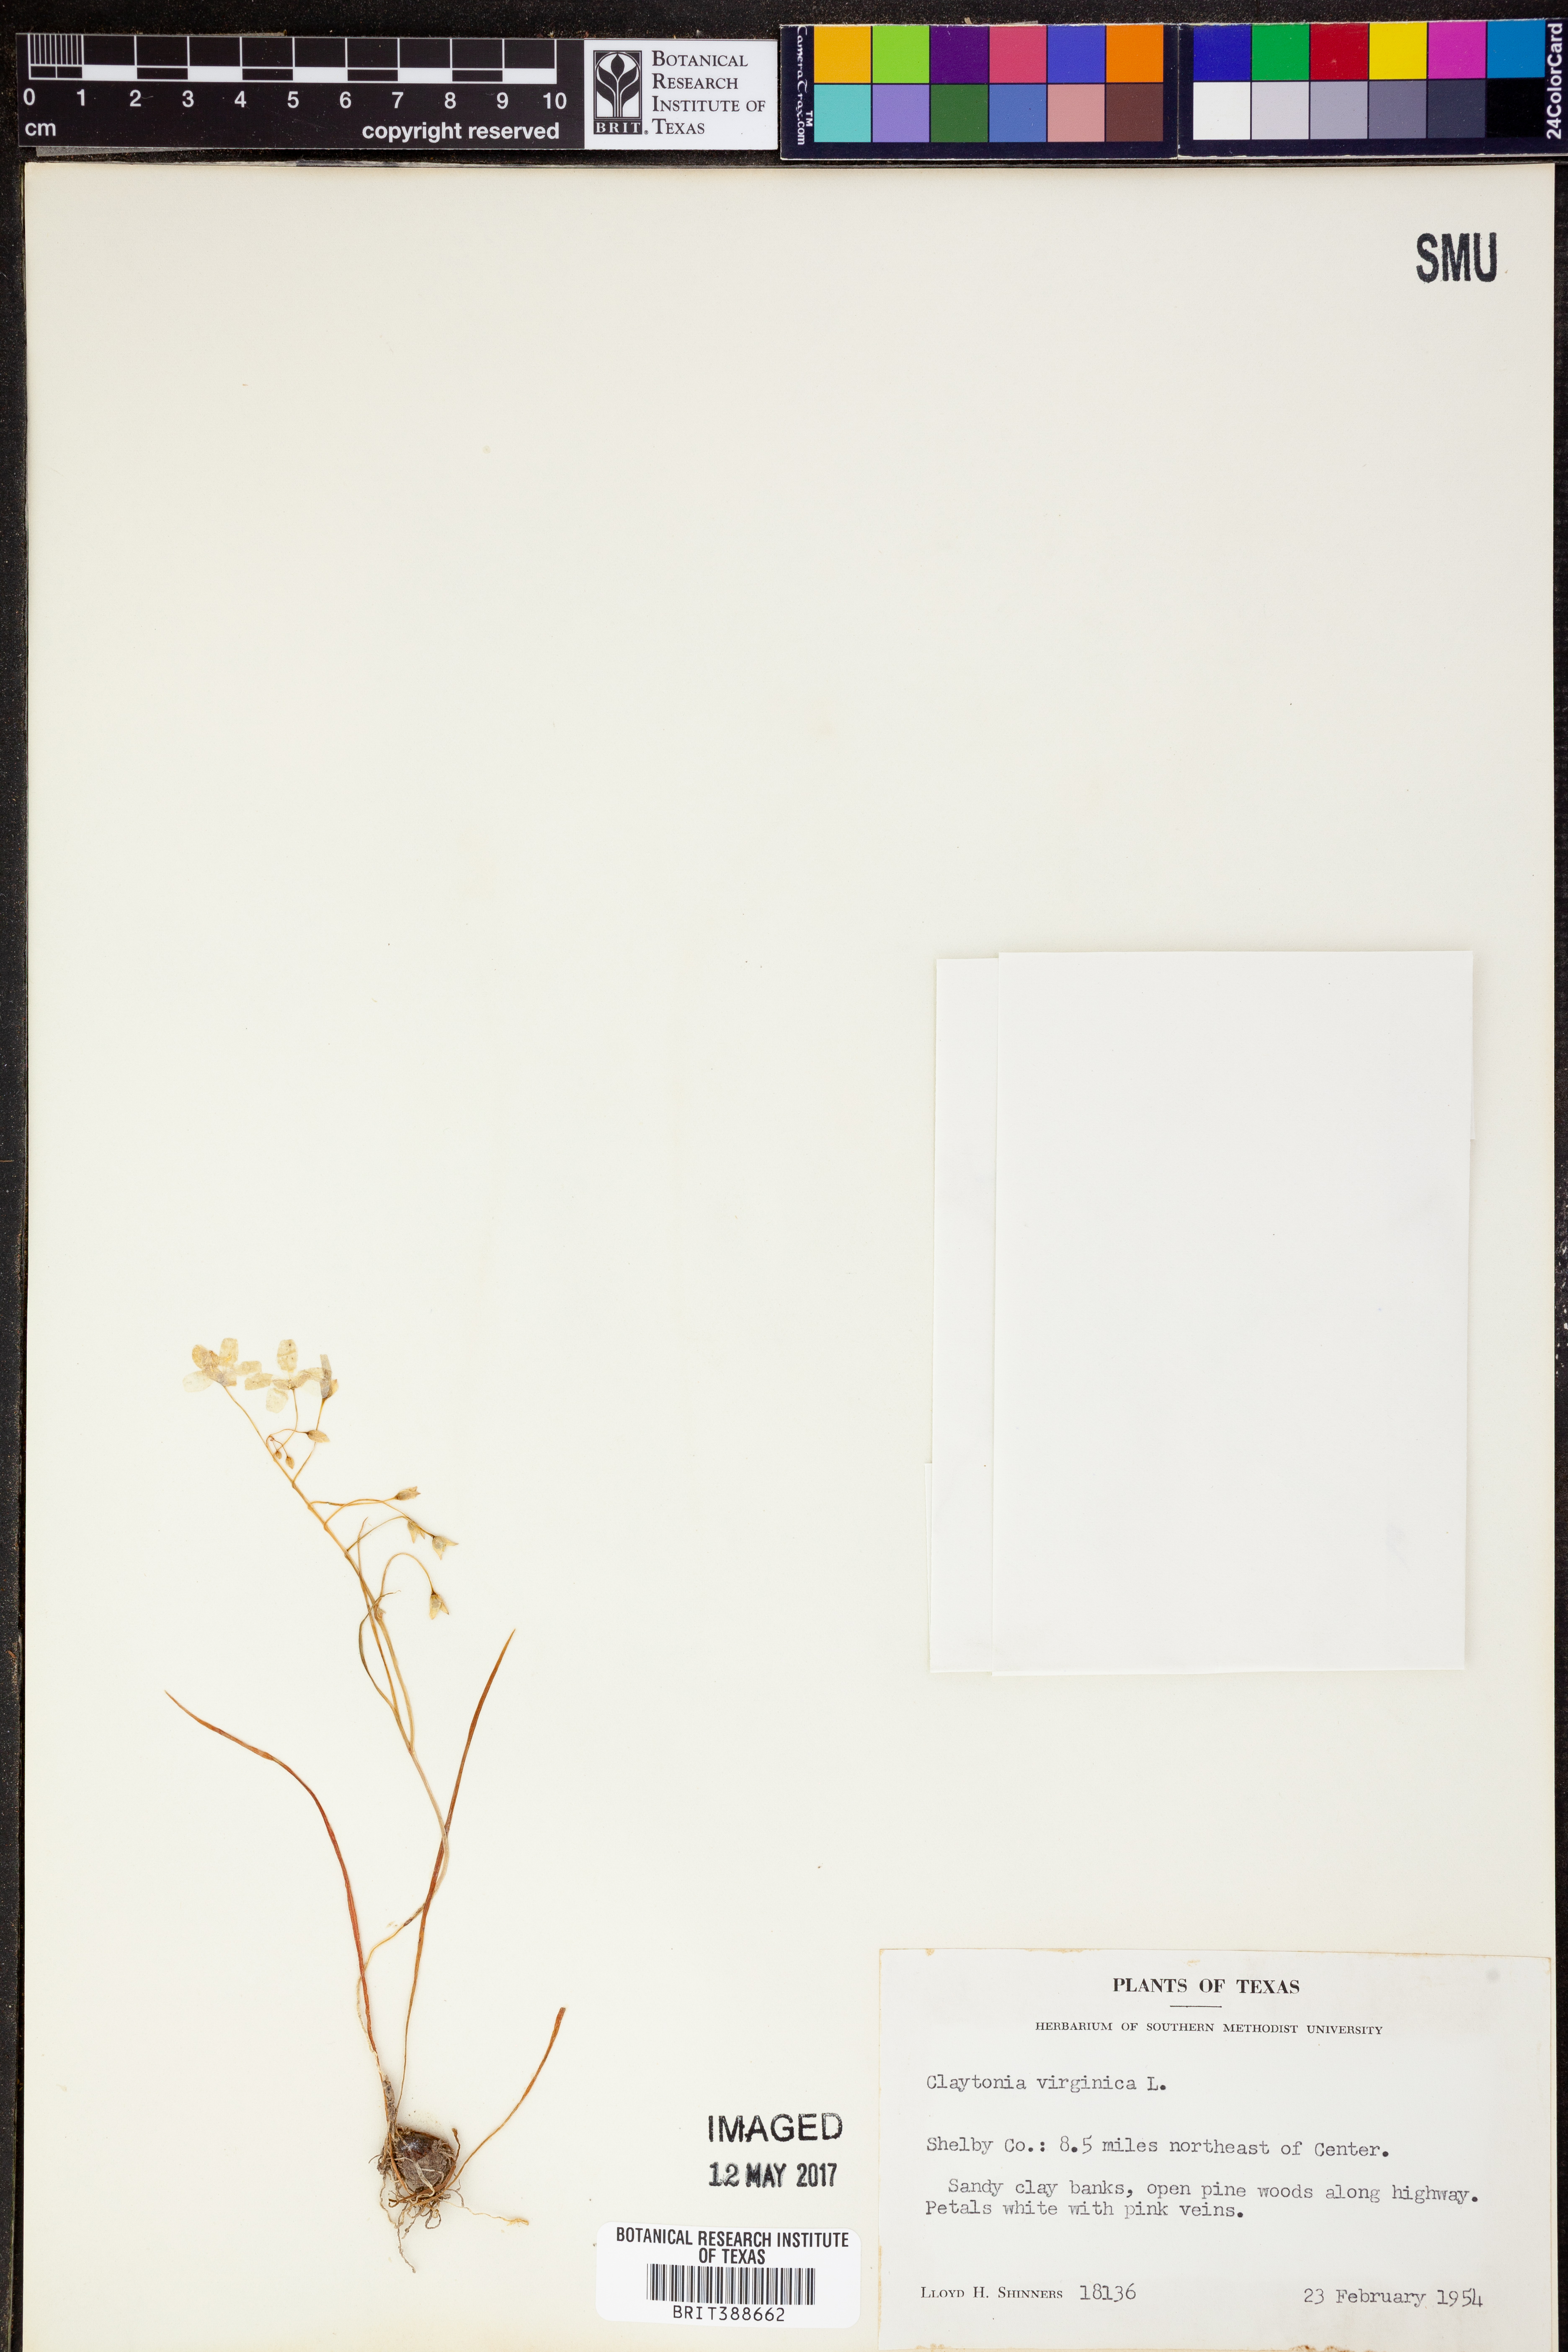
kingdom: Plantae
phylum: Tracheophyta
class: Magnoliopsida
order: Caryophyllales
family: Montiaceae
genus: Claytonia
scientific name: Claytonia virginica
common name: Virginia springbeauty
